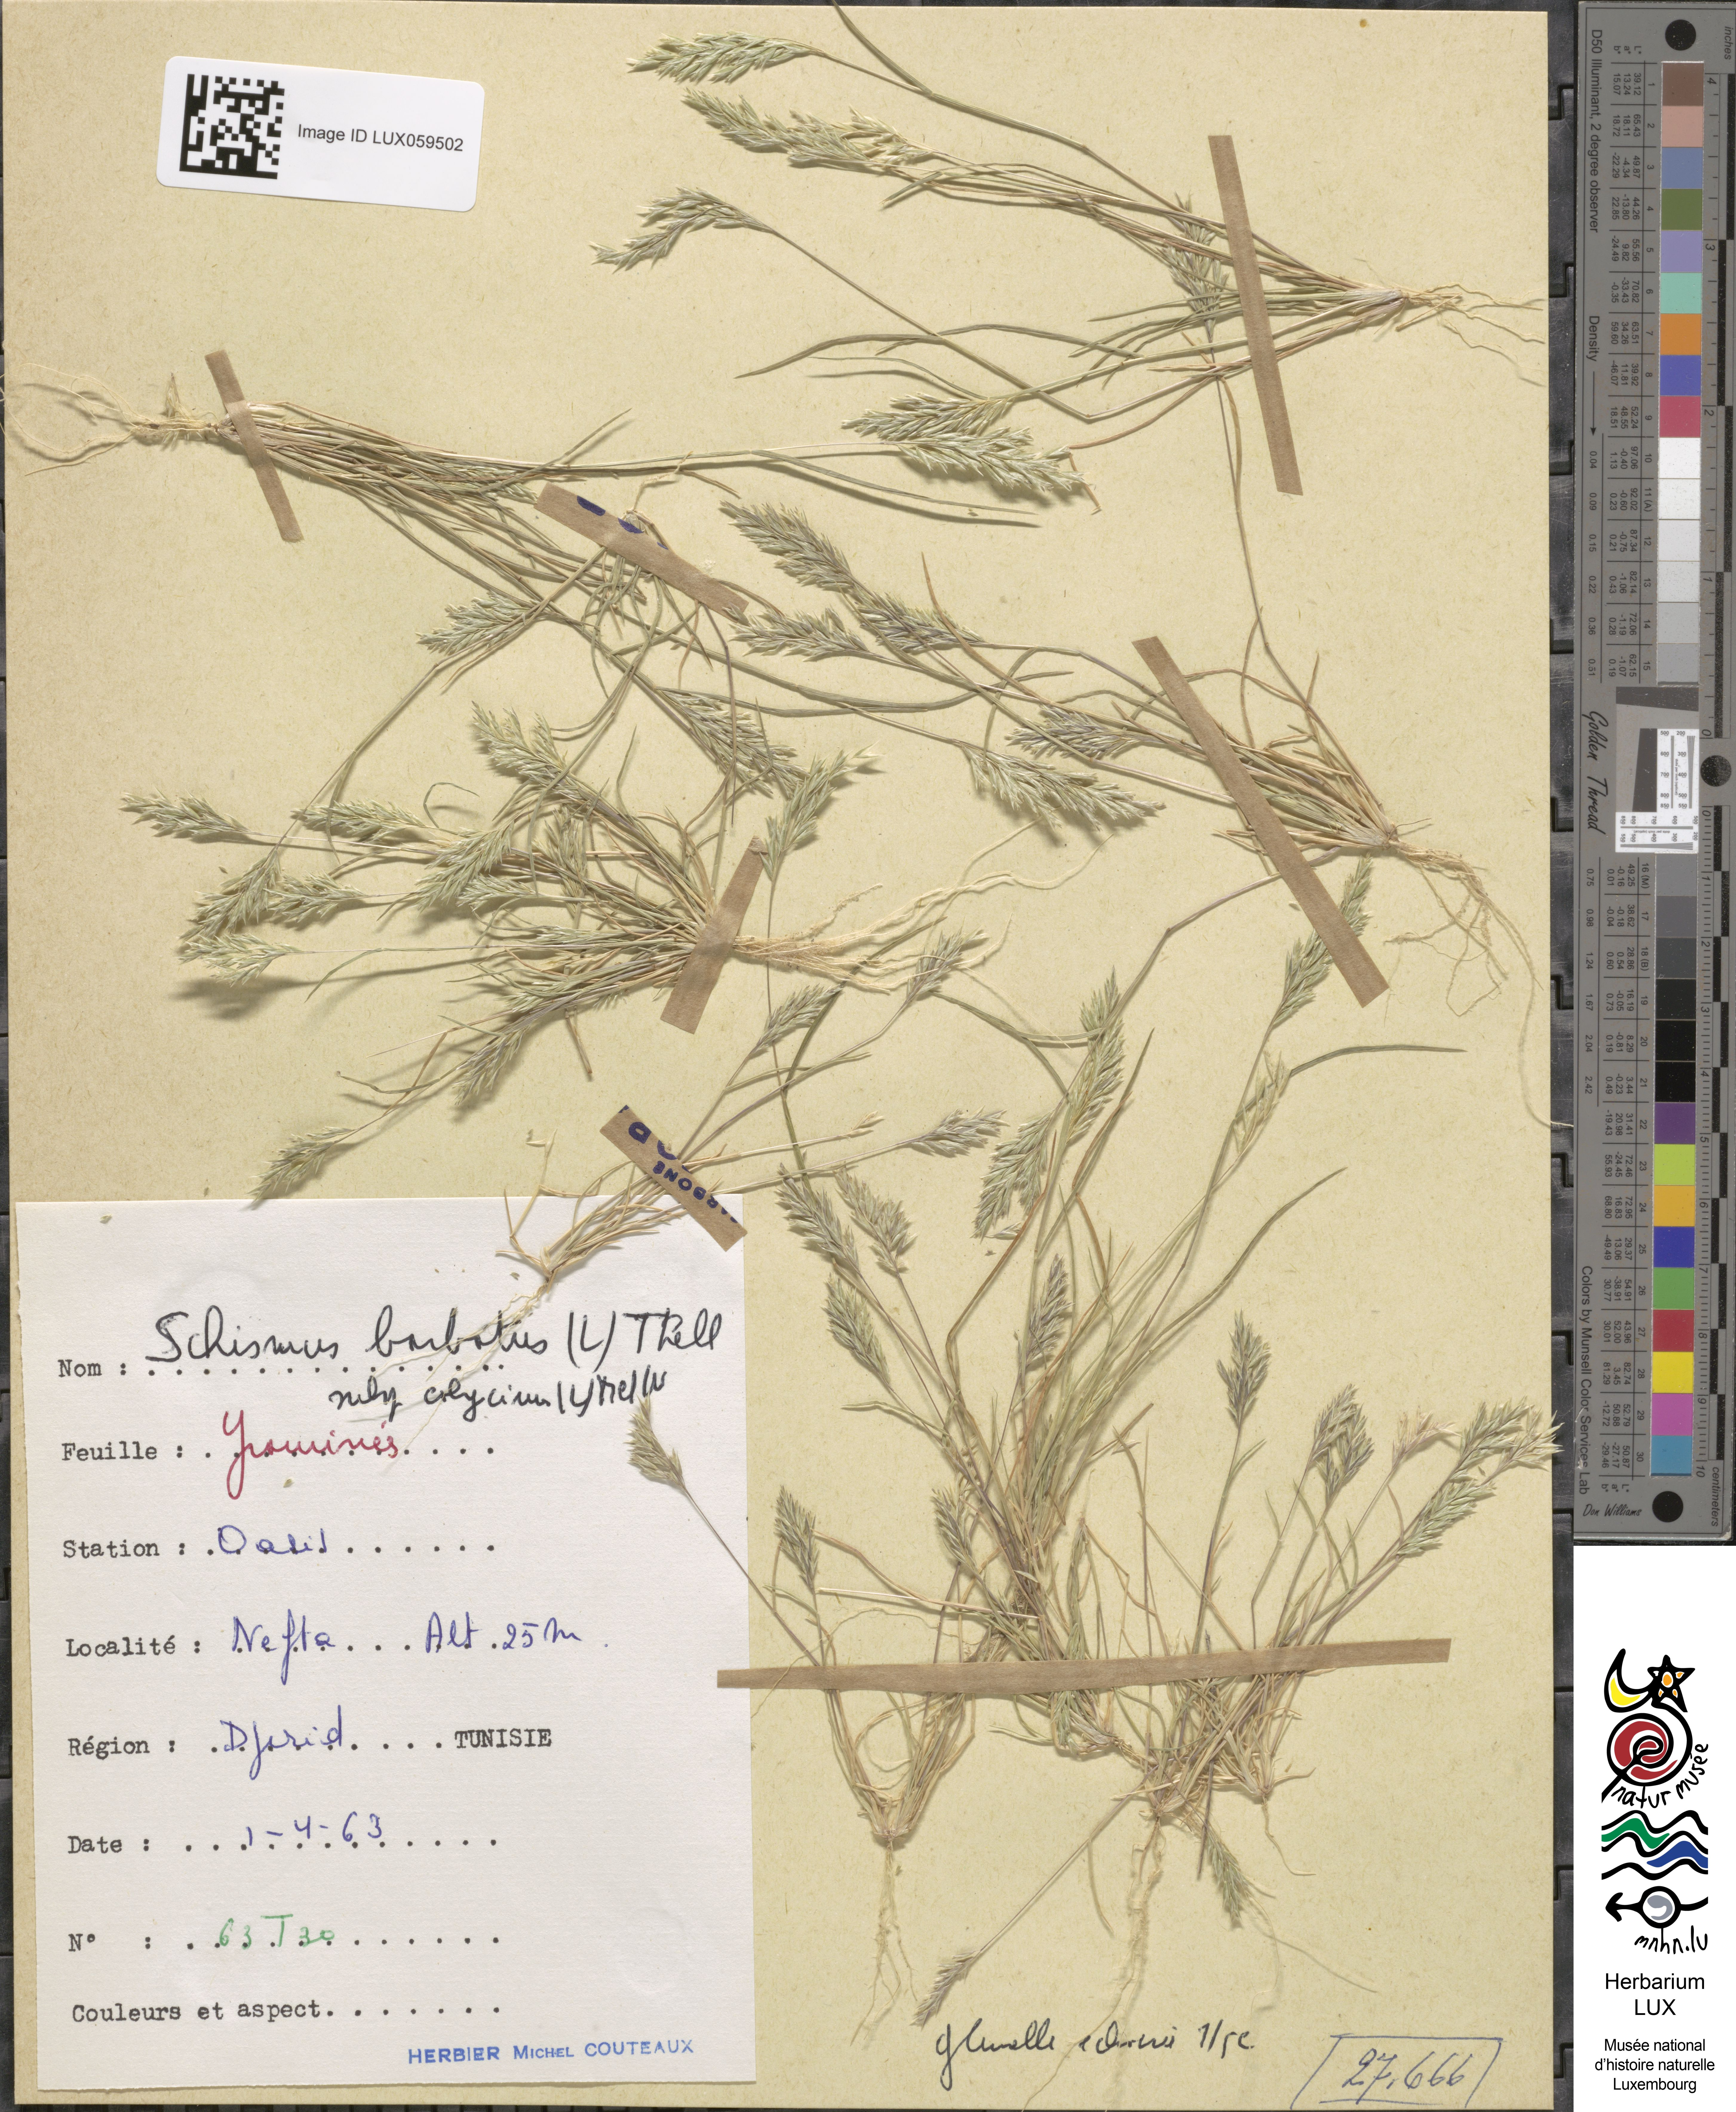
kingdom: Plantae
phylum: Tracheophyta
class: Liliopsida
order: Poales
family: Poaceae
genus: Schismus
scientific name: Schismus barbatus
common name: Kelch-grass
